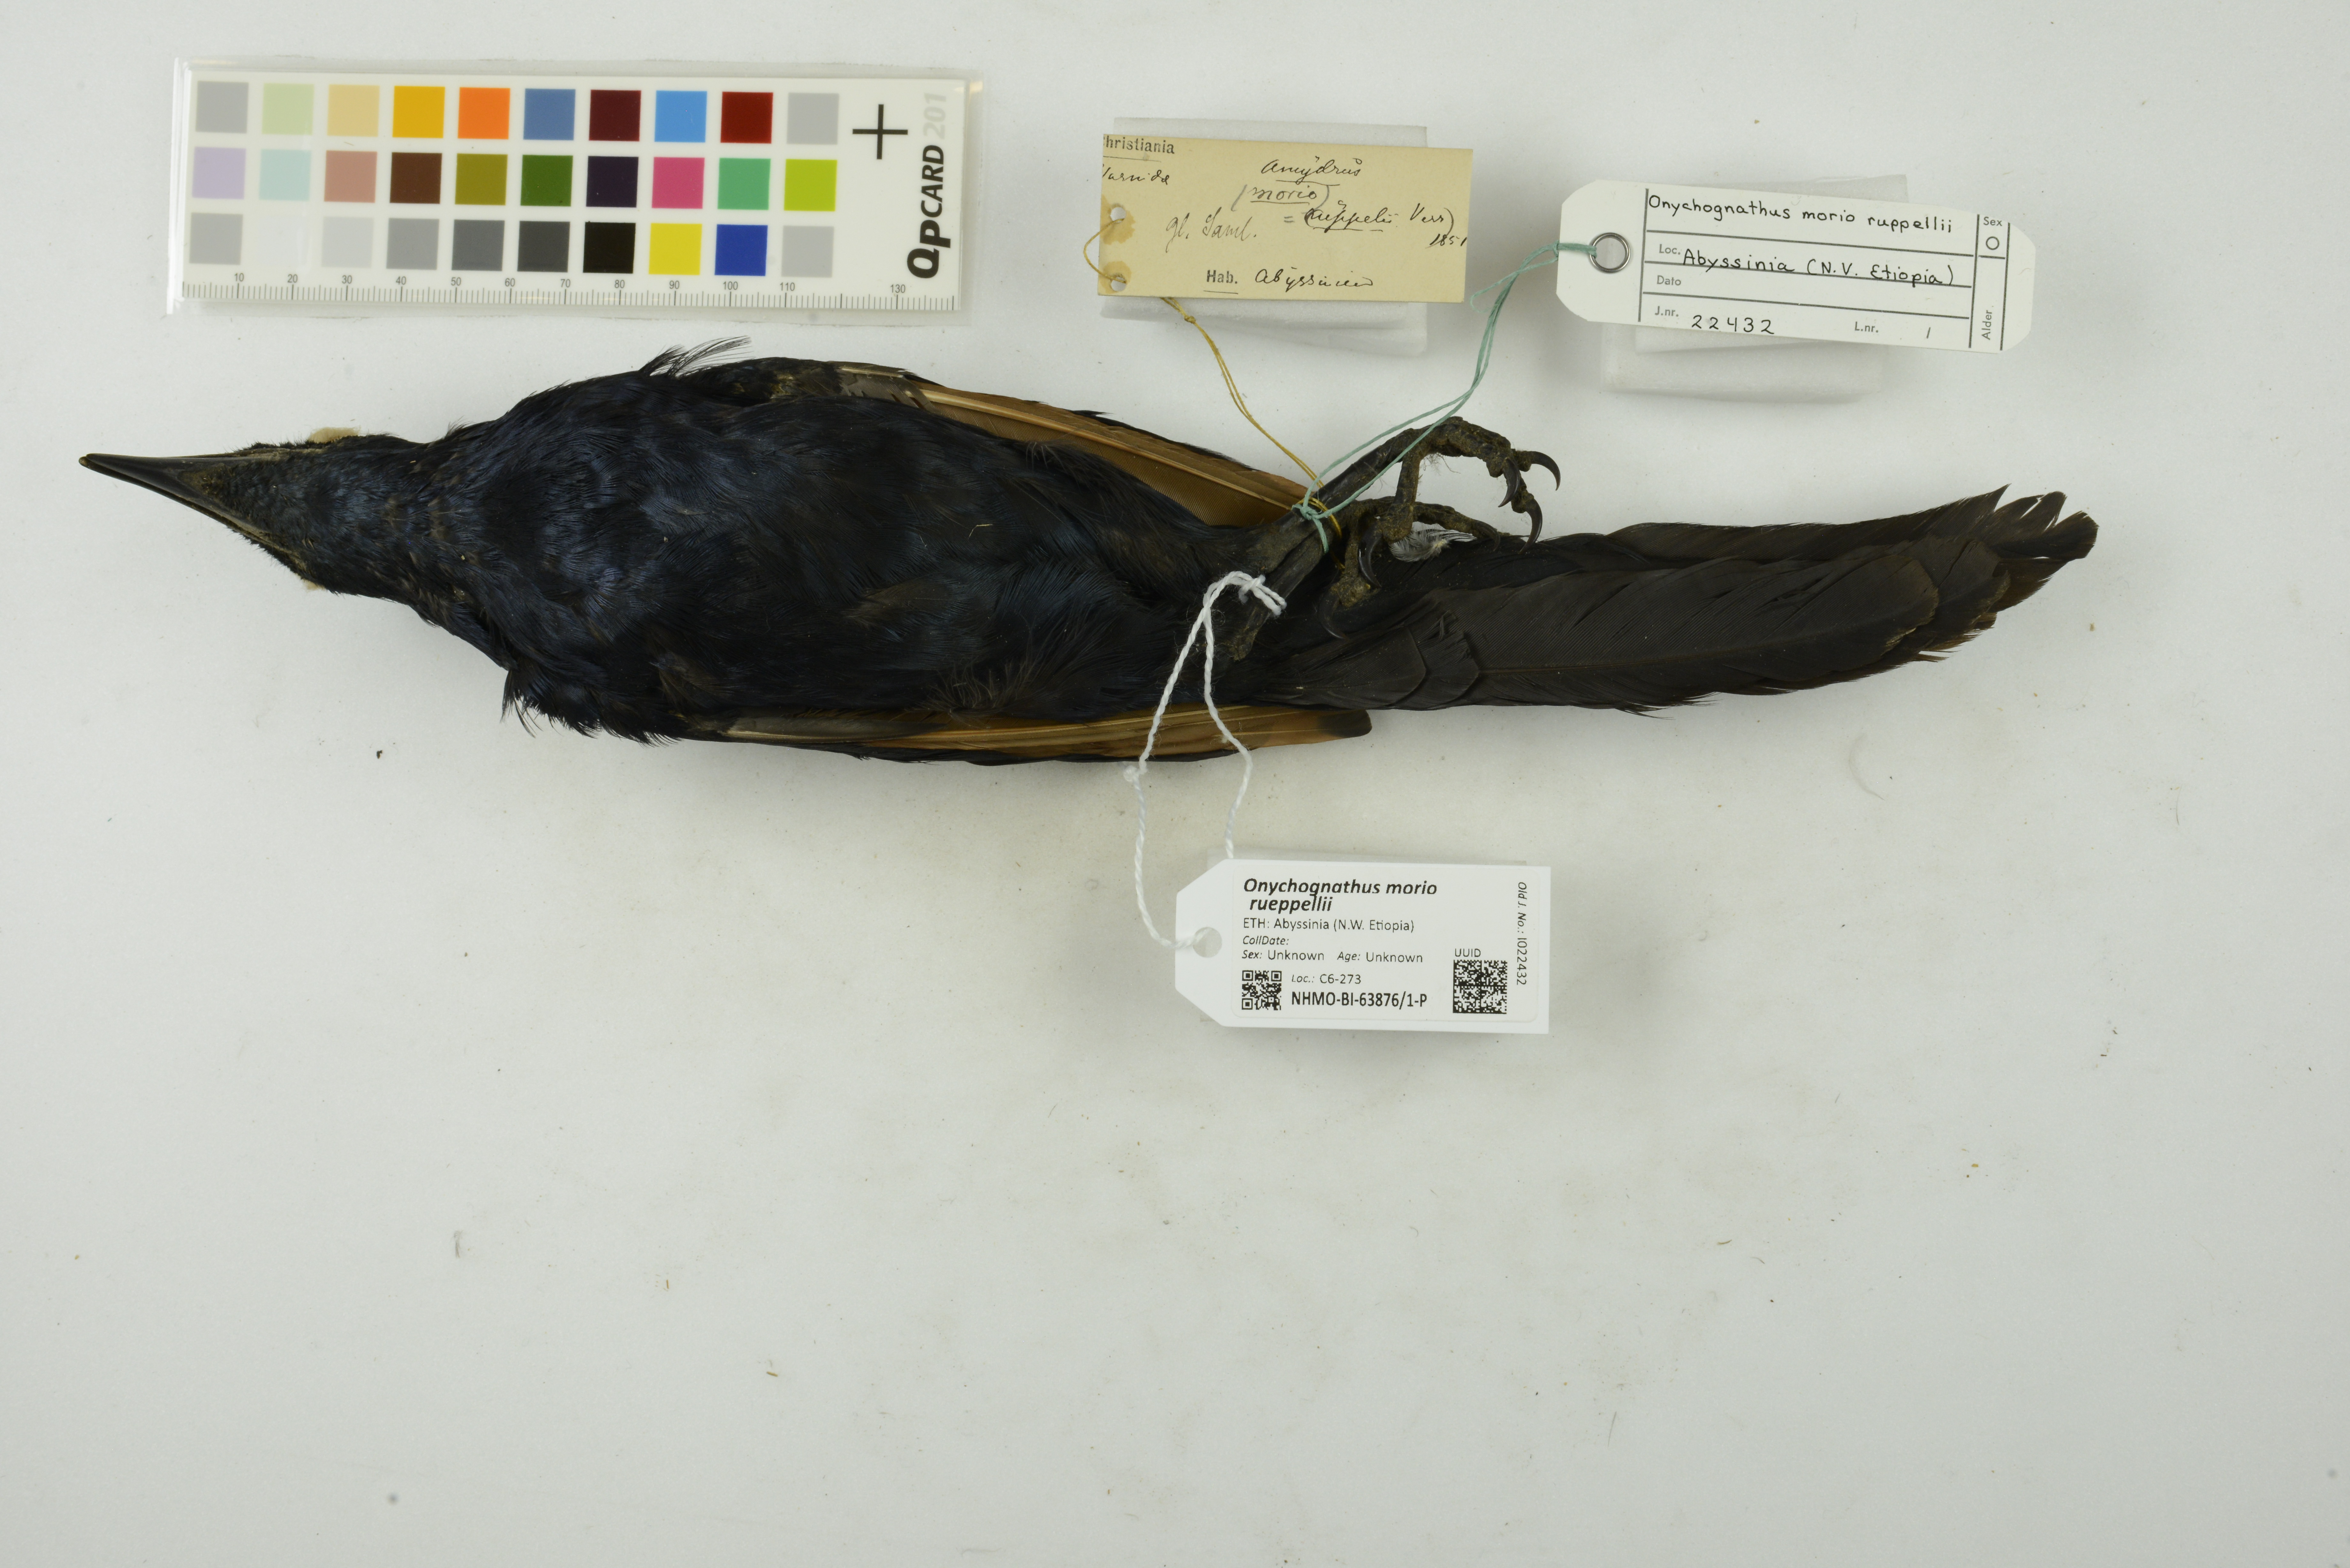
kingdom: Animalia
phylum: Chordata
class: Aves
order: Passeriformes
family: Sturnidae
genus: Onychognathus
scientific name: Onychognathus morio
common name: Red-winged starling
